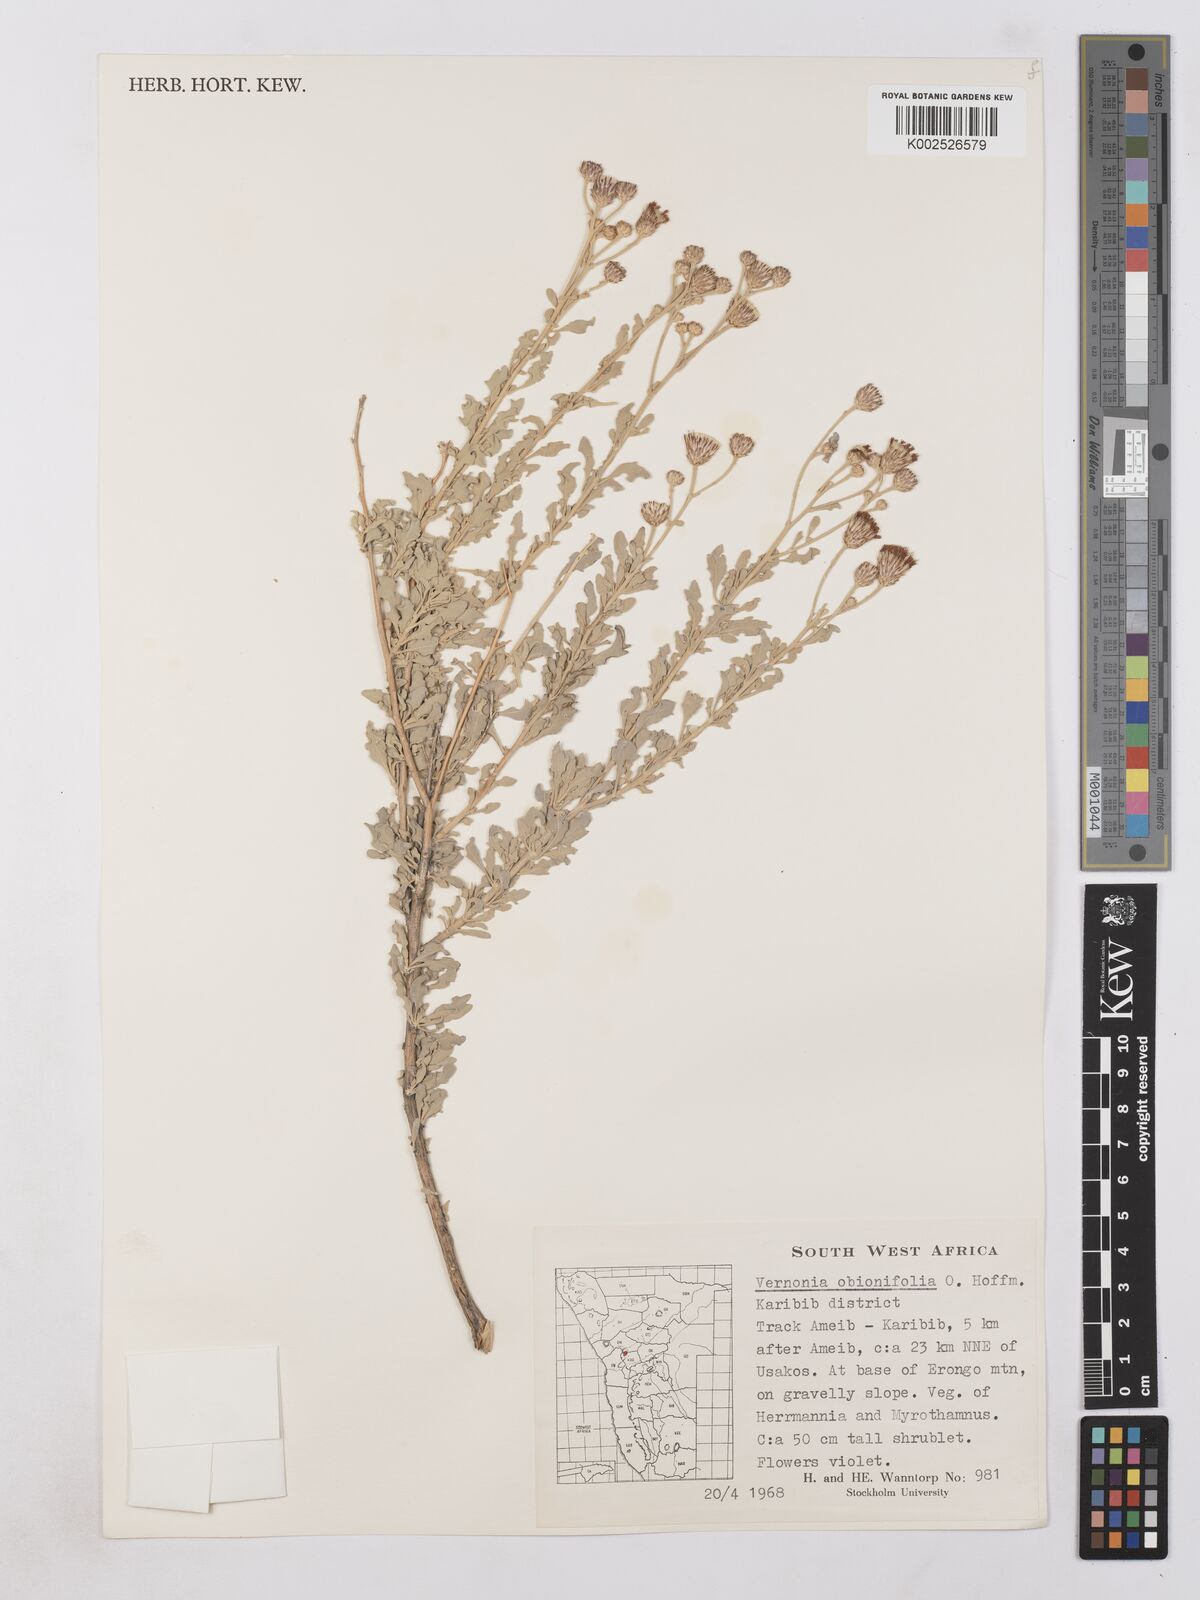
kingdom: Plantae
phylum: Tracheophyta
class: Magnoliopsida
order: Asterales
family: Asteraceae
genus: Namibithamnus
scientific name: Namibithamnus obionifolius
